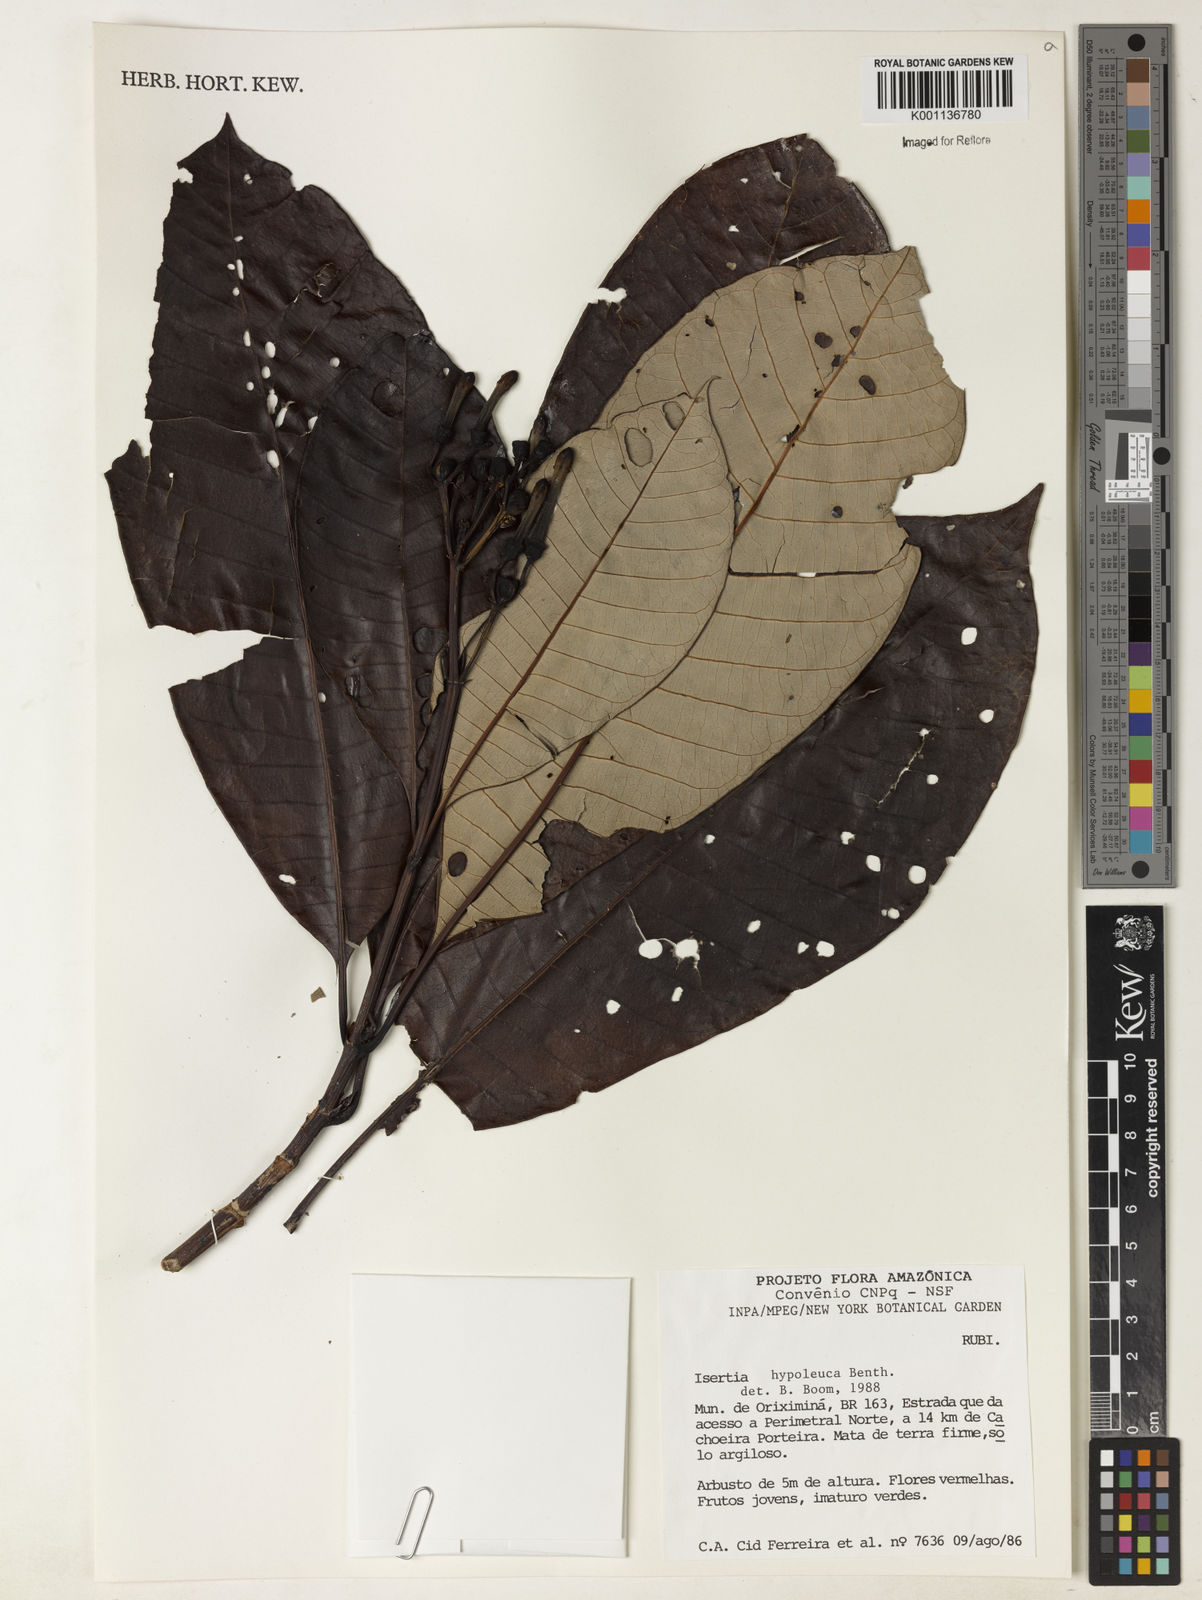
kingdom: Plantae
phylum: Tracheophyta
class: Magnoliopsida
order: Gentianales
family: Rubiaceae
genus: Isertia
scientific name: Isertia hypoleuca
